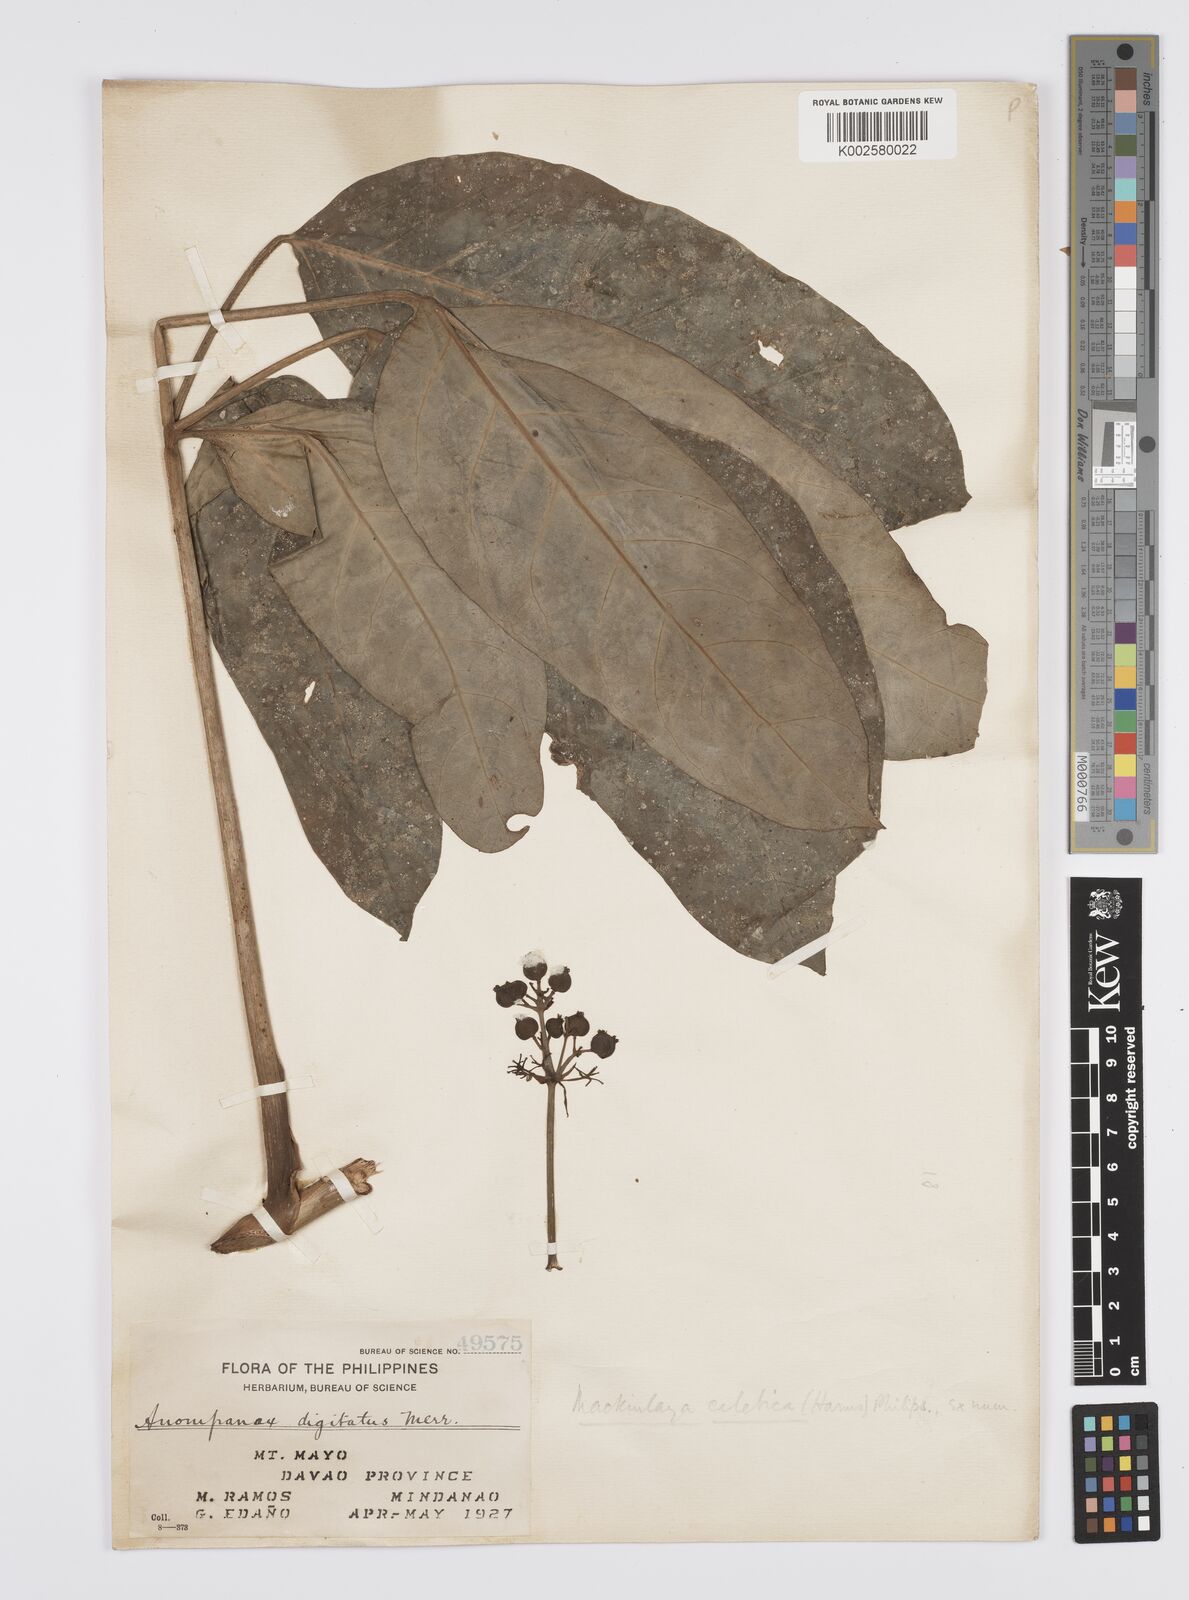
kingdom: Plantae
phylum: Tracheophyta
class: Magnoliopsida
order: Apiales
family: Apiaceae
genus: Mackinlaya
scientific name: Mackinlaya celebica
